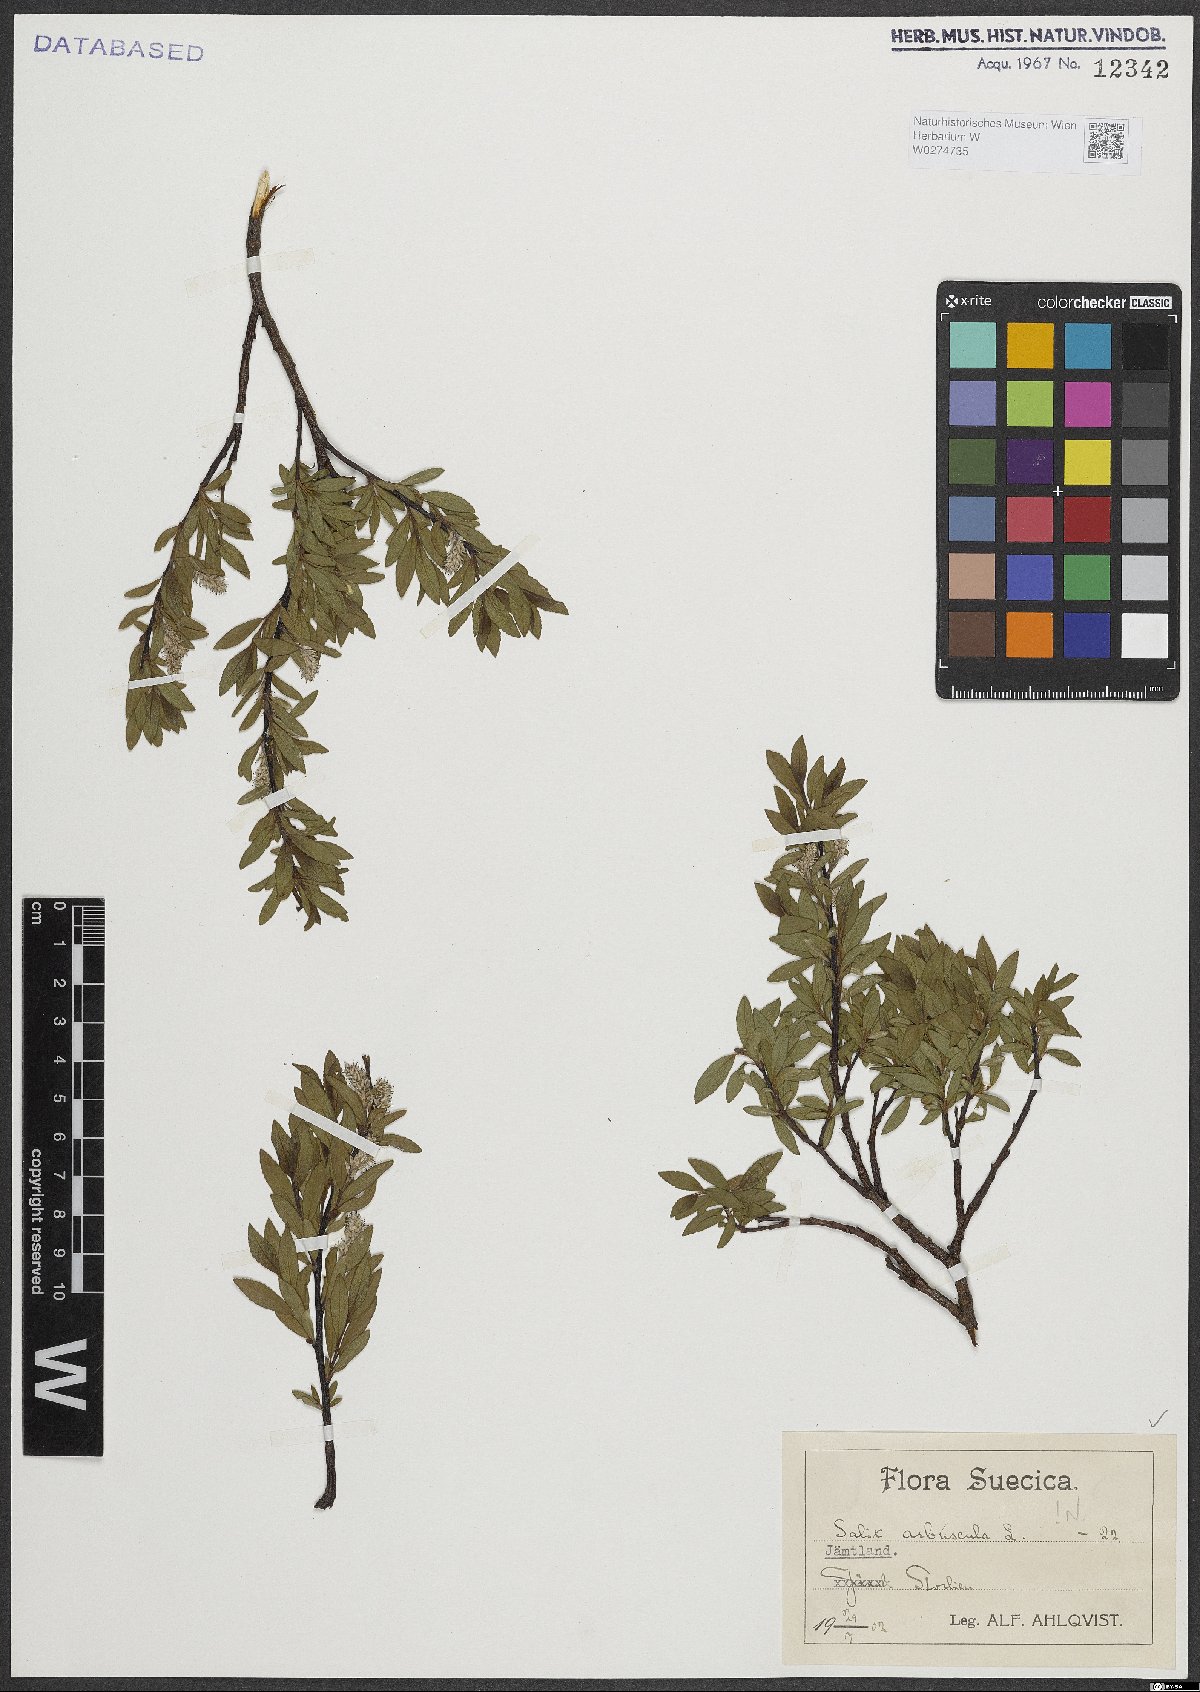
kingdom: Plantae
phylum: Tracheophyta
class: Magnoliopsida
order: Malpighiales
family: Salicaceae
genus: Salix
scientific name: Salix arbuscula
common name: Mountain willow
